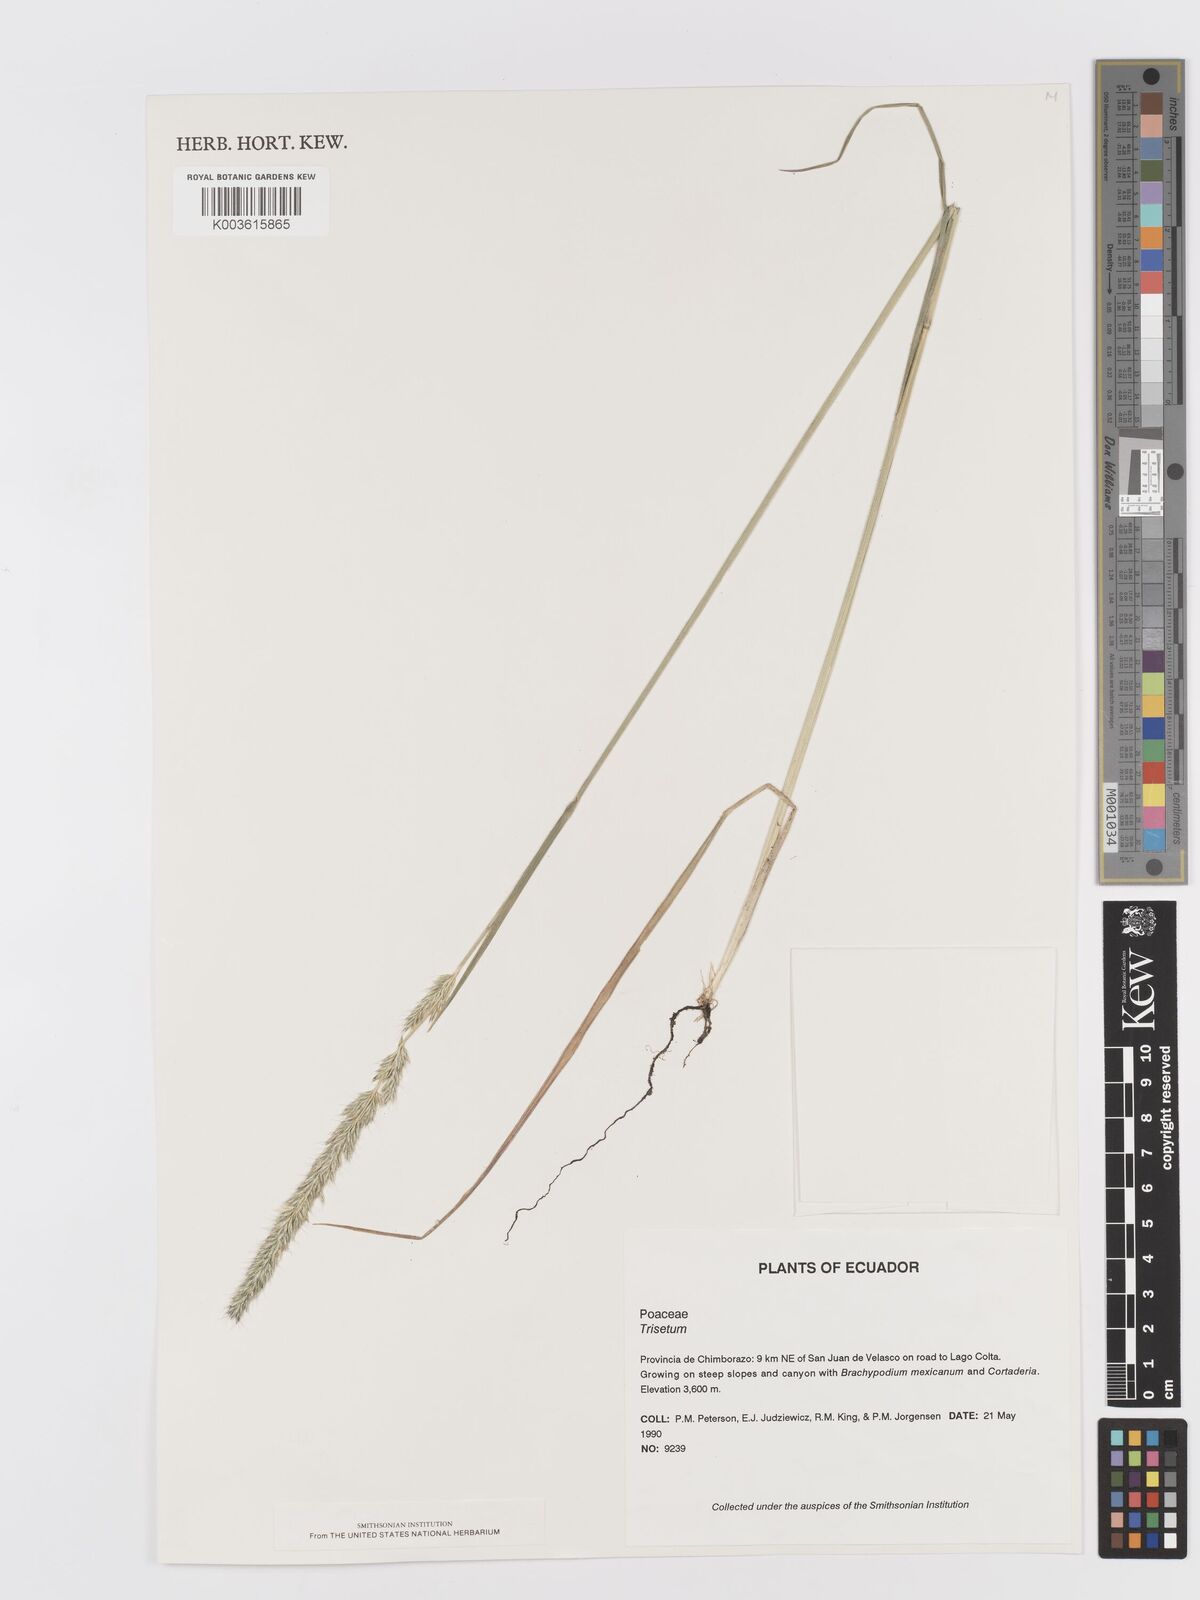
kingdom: Plantae
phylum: Tracheophyta
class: Liliopsida
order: Poales
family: Poaceae
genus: Koeleria
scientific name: Koeleria spicata
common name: Mountain trisetum
